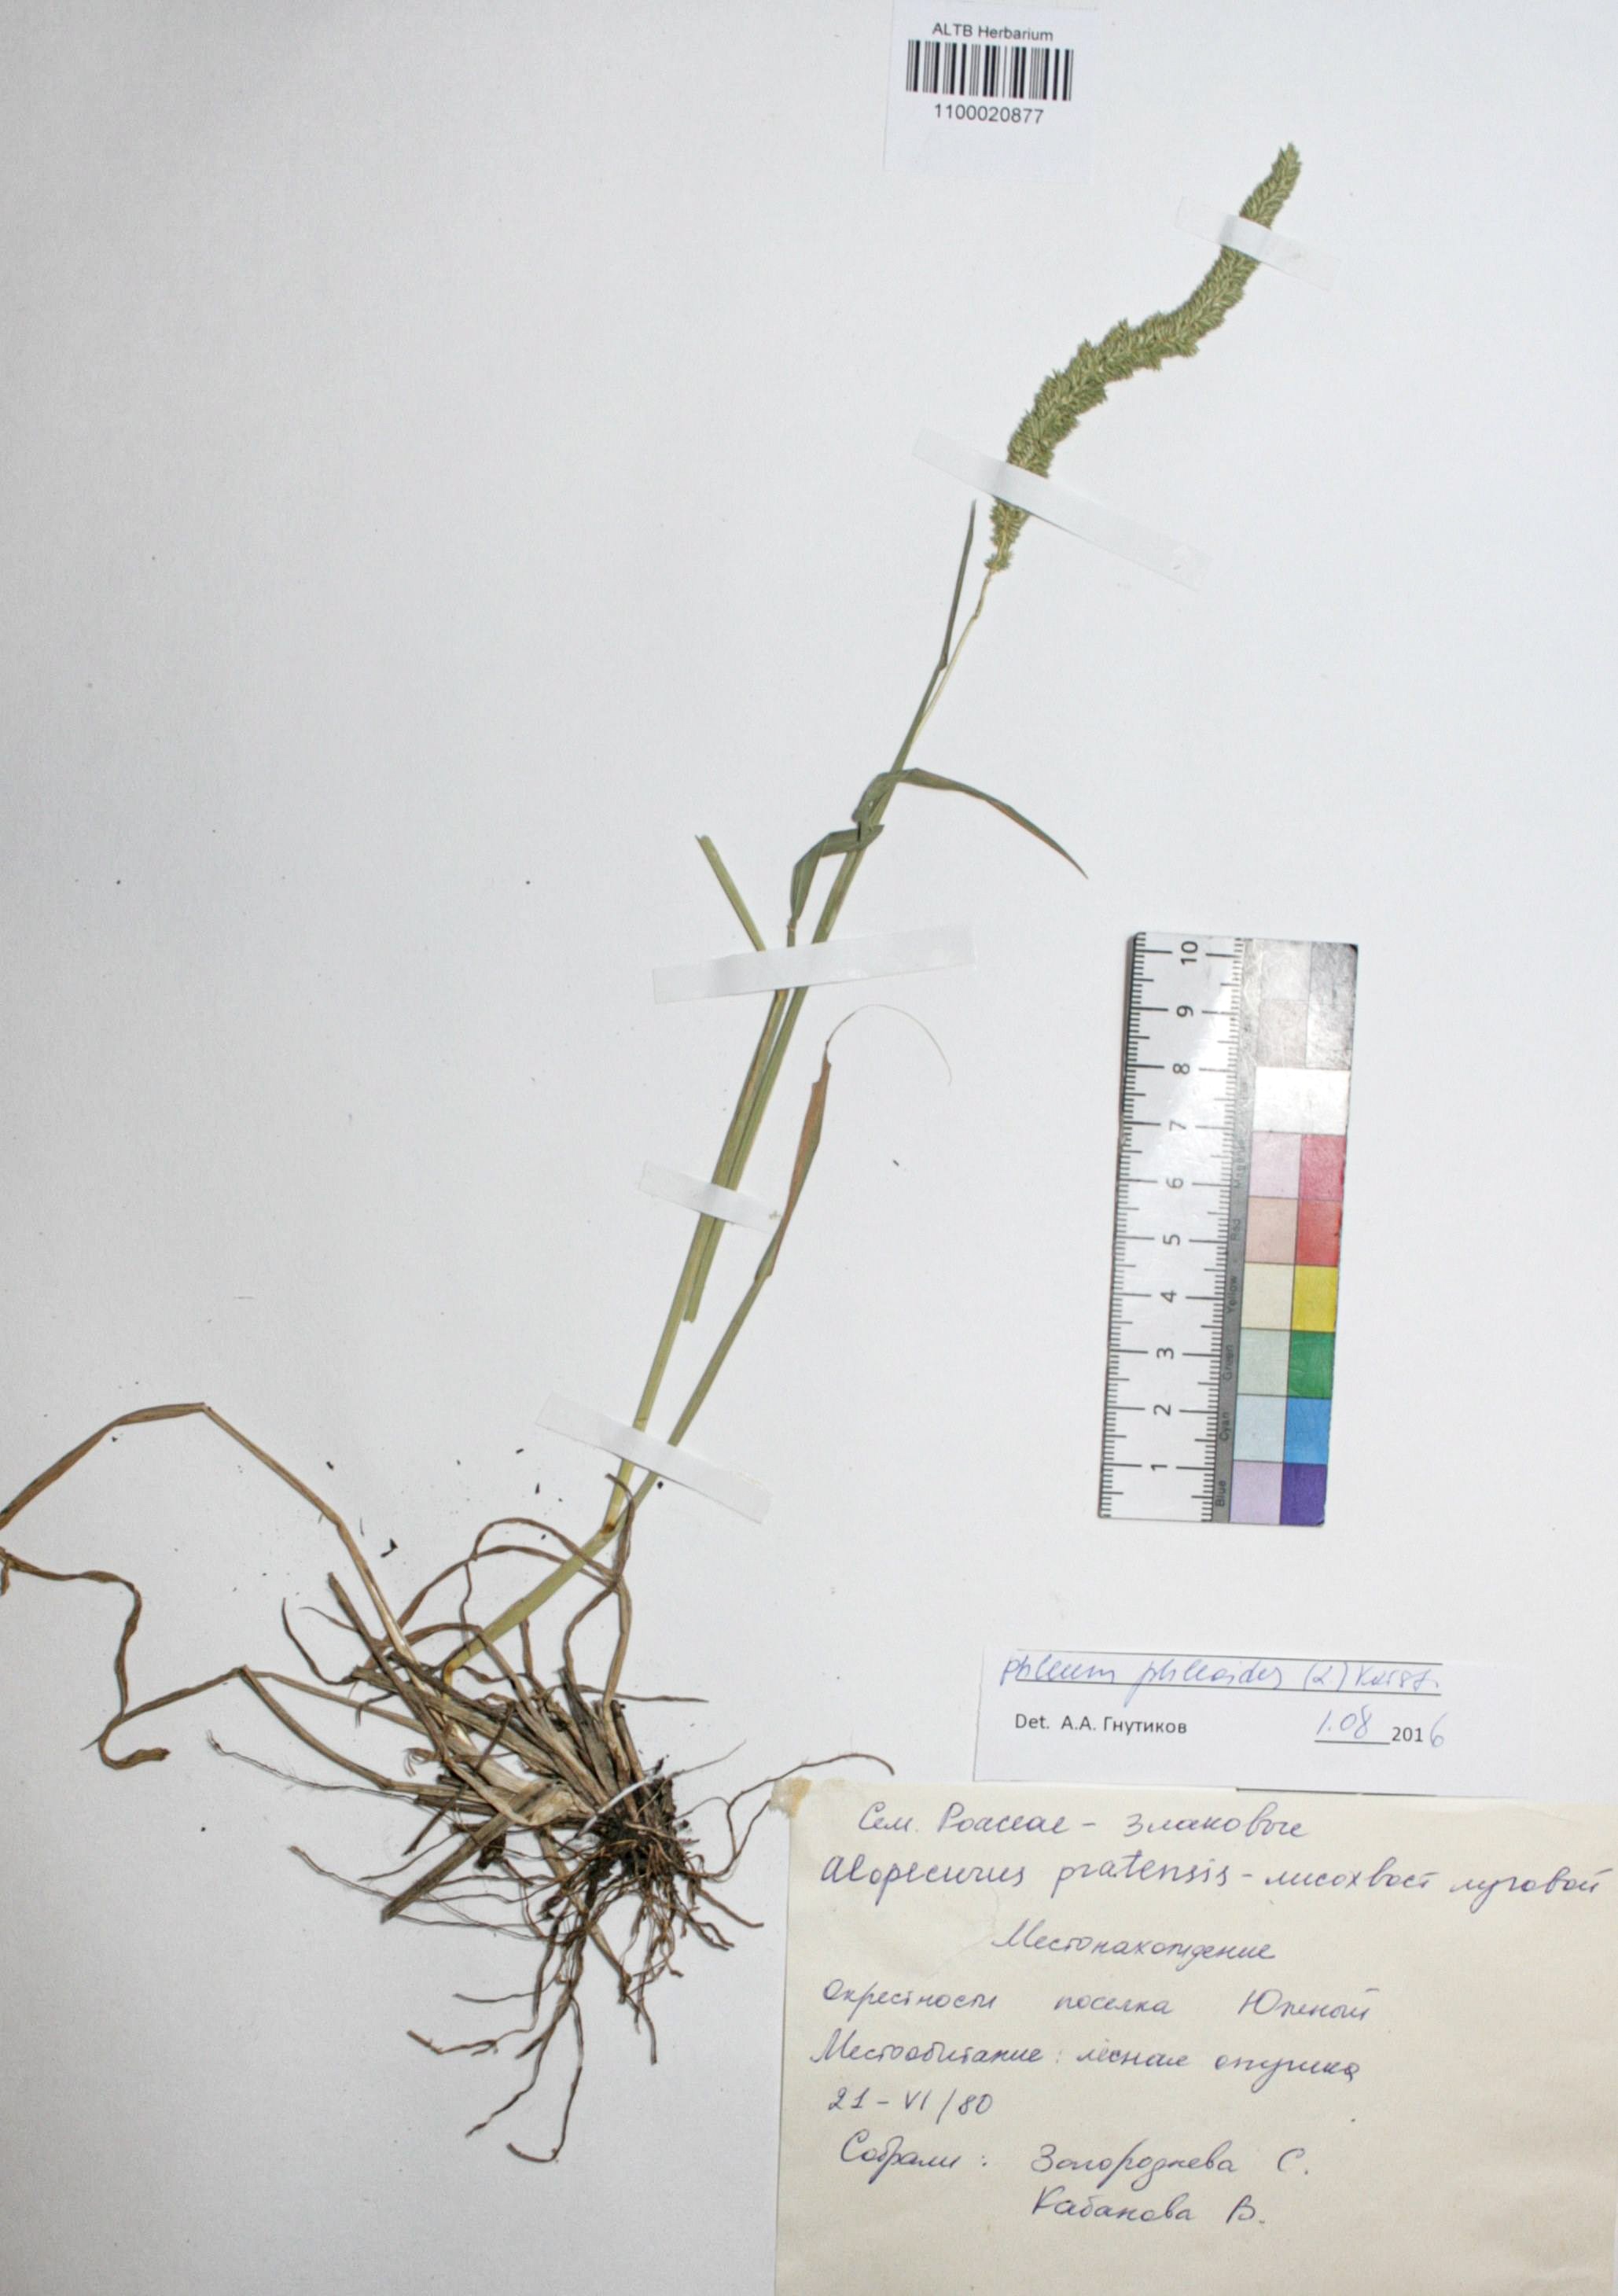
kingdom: Plantae
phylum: Tracheophyta
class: Liliopsida
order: Poales
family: Poaceae
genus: Phleum
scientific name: Phleum pratense
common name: Timothy grass
